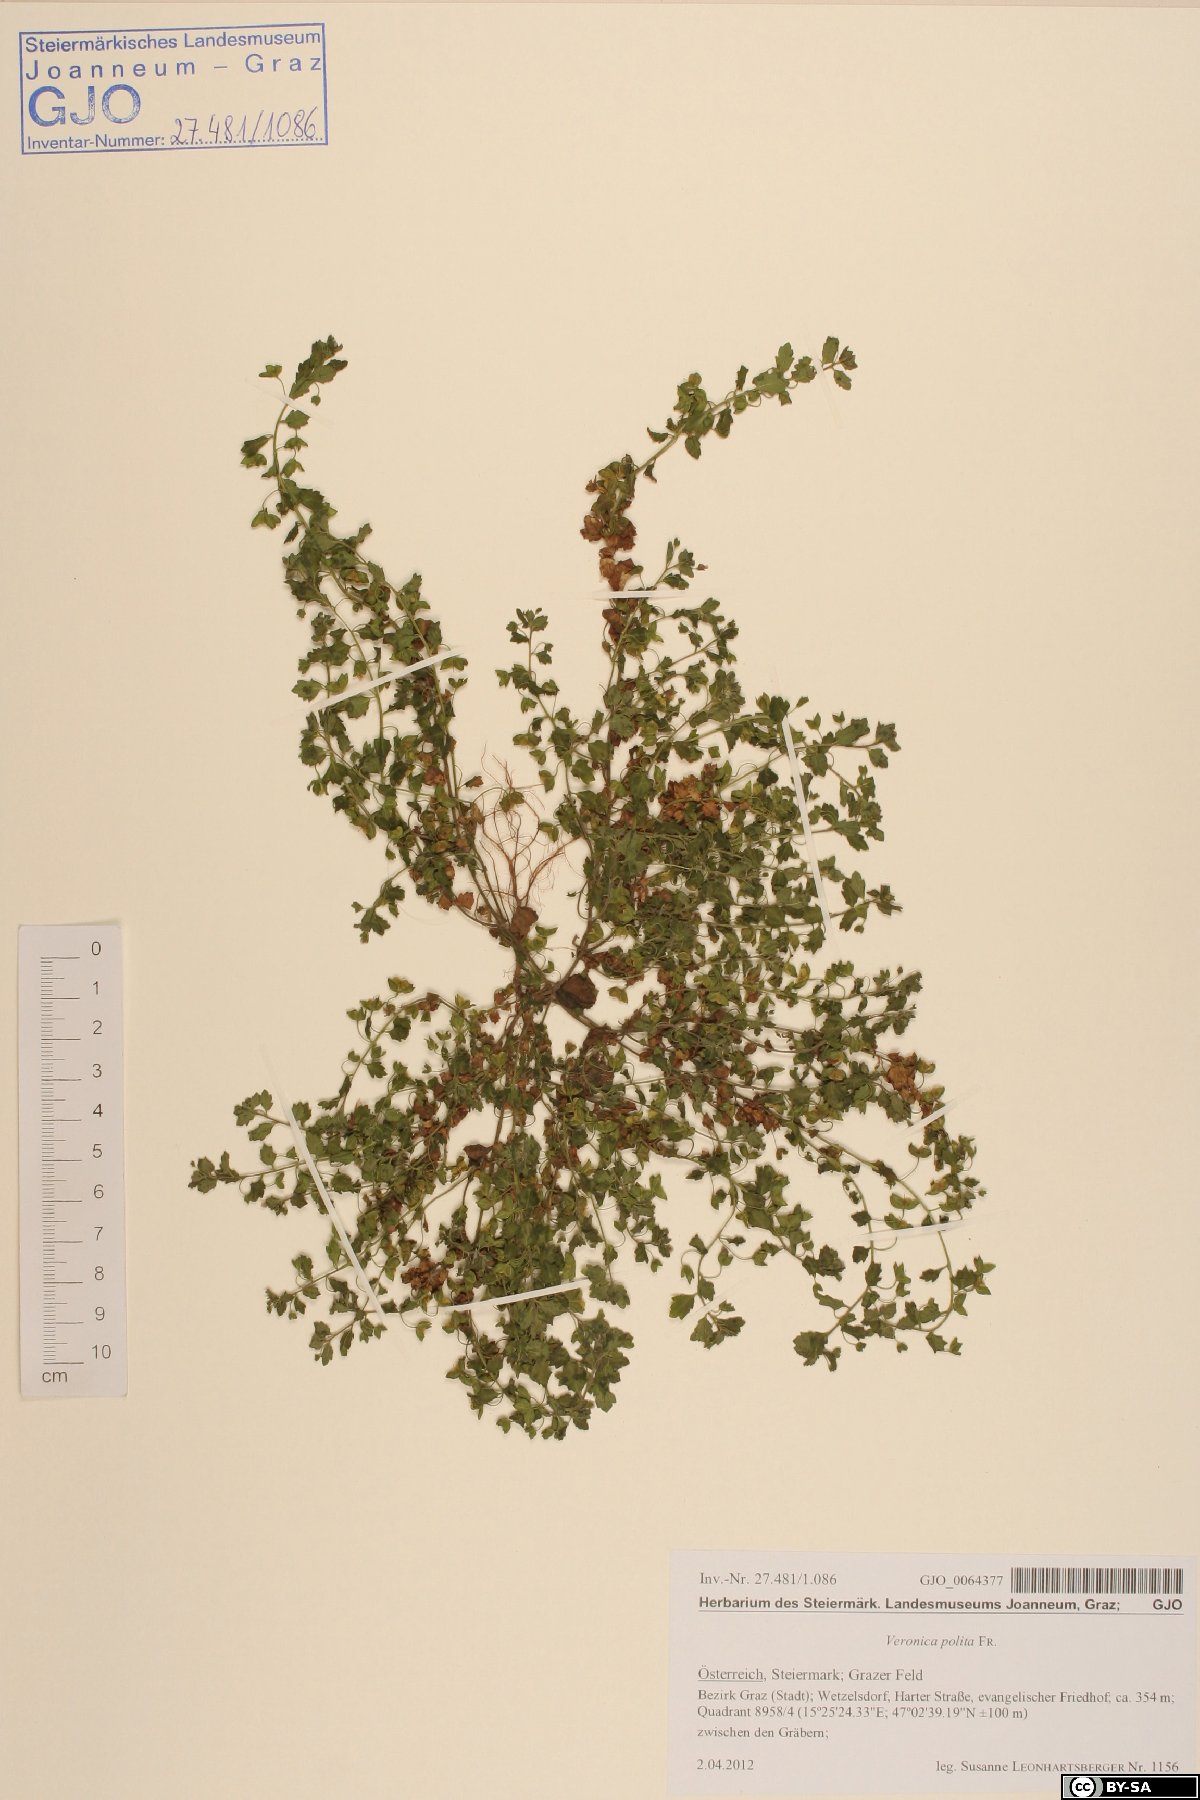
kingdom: Plantae
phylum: Tracheophyta
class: Magnoliopsida
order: Lamiales
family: Plantaginaceae
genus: Veronica
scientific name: Veronica polita
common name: Grey field-speedwell
